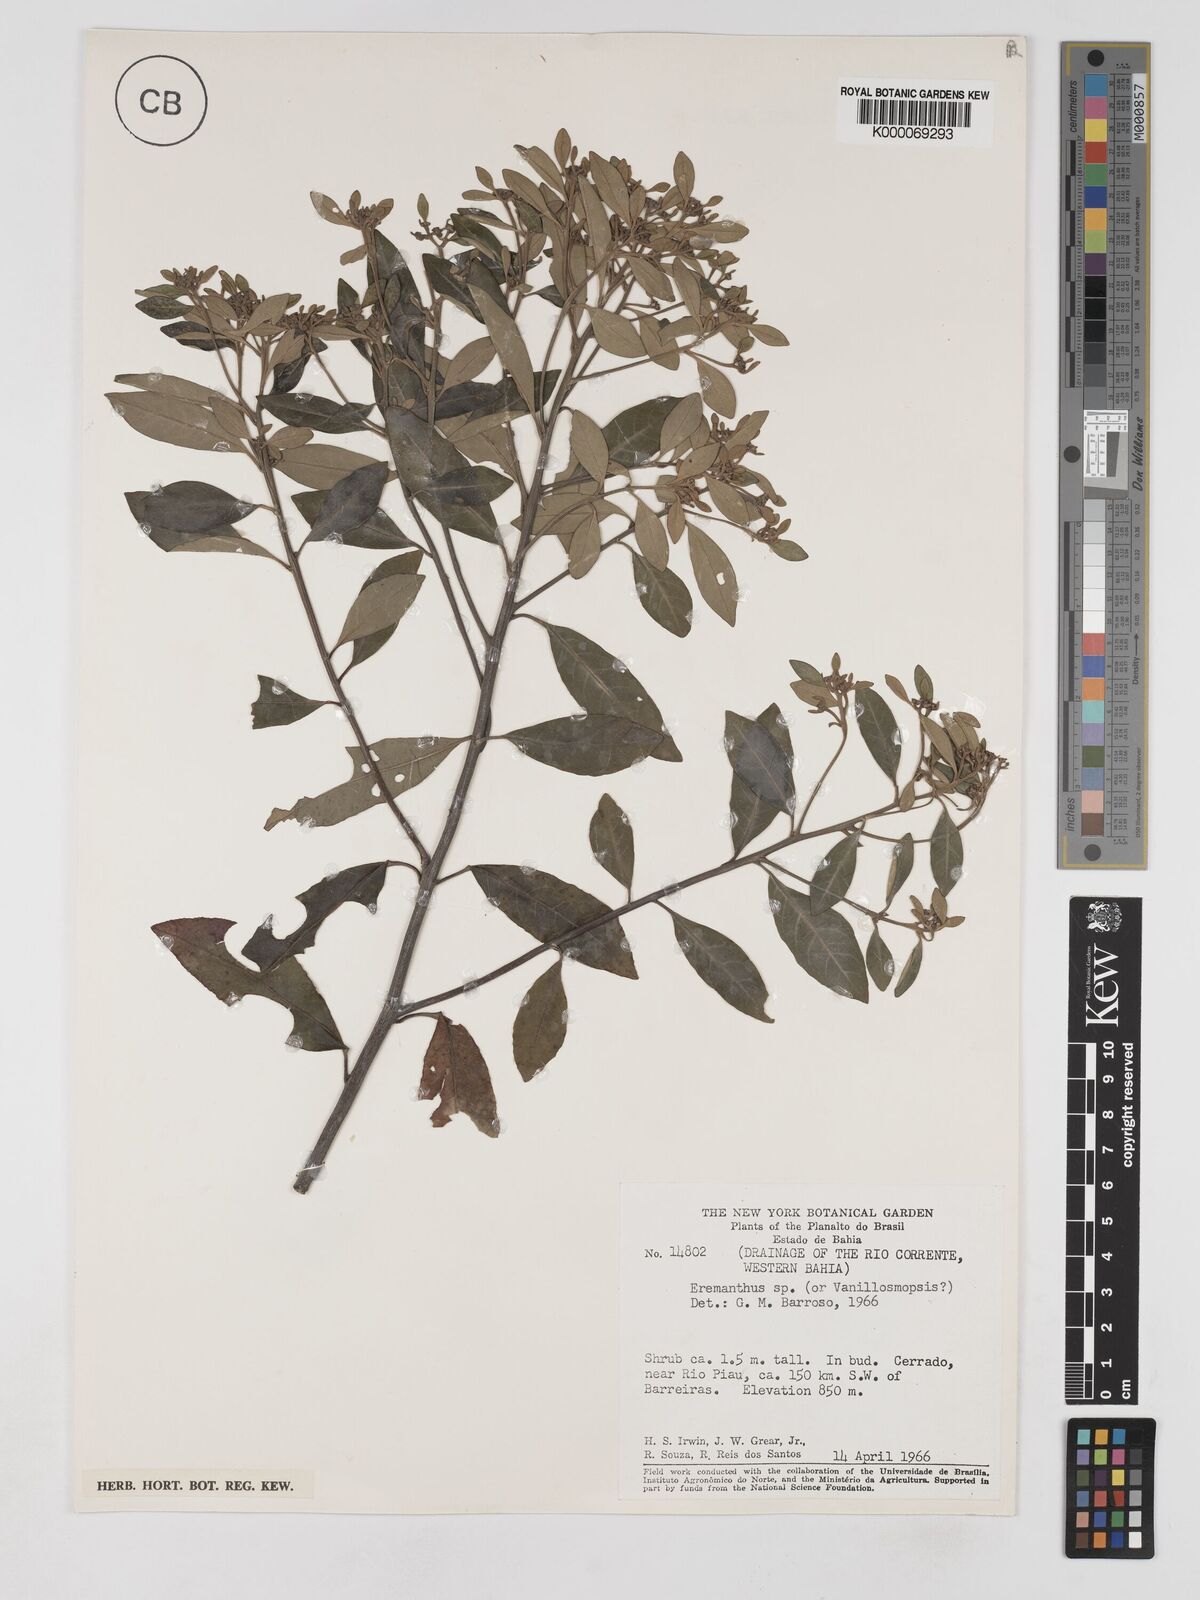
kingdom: Plantae
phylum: Tracheophyta
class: Magnoliopsida
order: Asterales
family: Asteraceae
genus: Eremanthus
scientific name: Eremanthus
